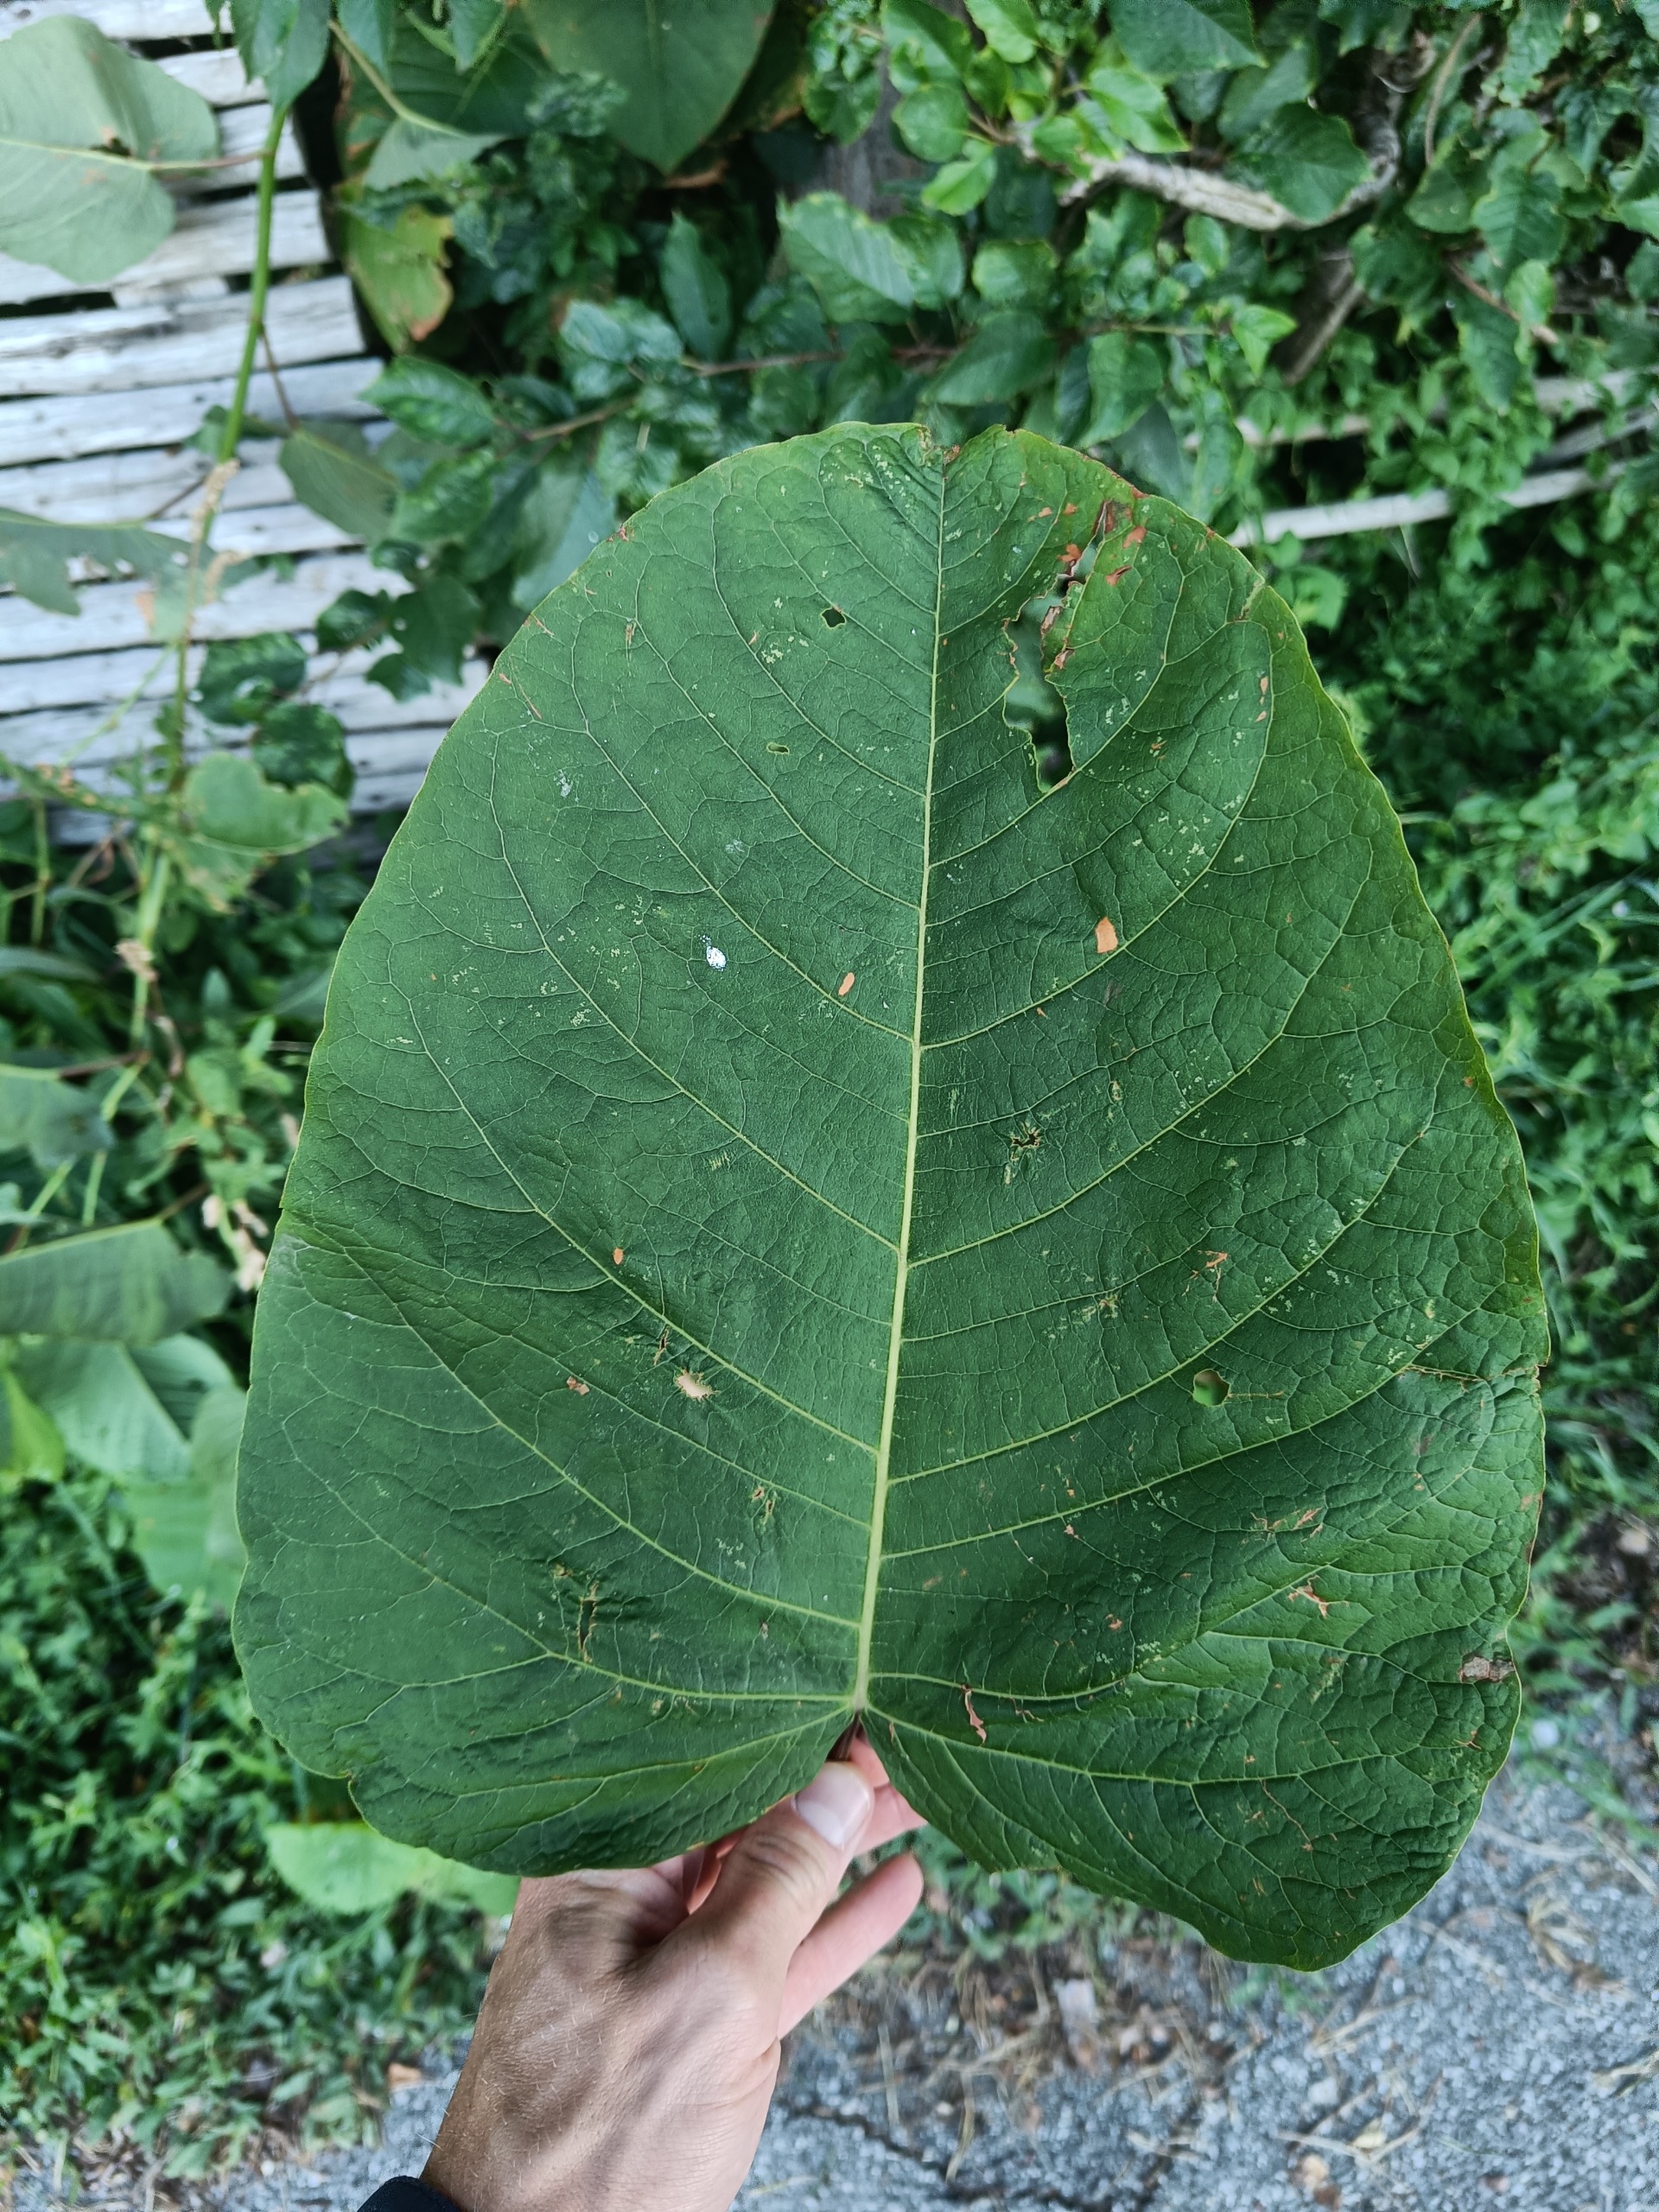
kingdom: Plantae
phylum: Tracheophyta
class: Magnoliopsida
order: Caryophyllales
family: Polygonaceae
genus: Reynoutria
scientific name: Reynoutria sachalinensis
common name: Kæmpe-pileurt
